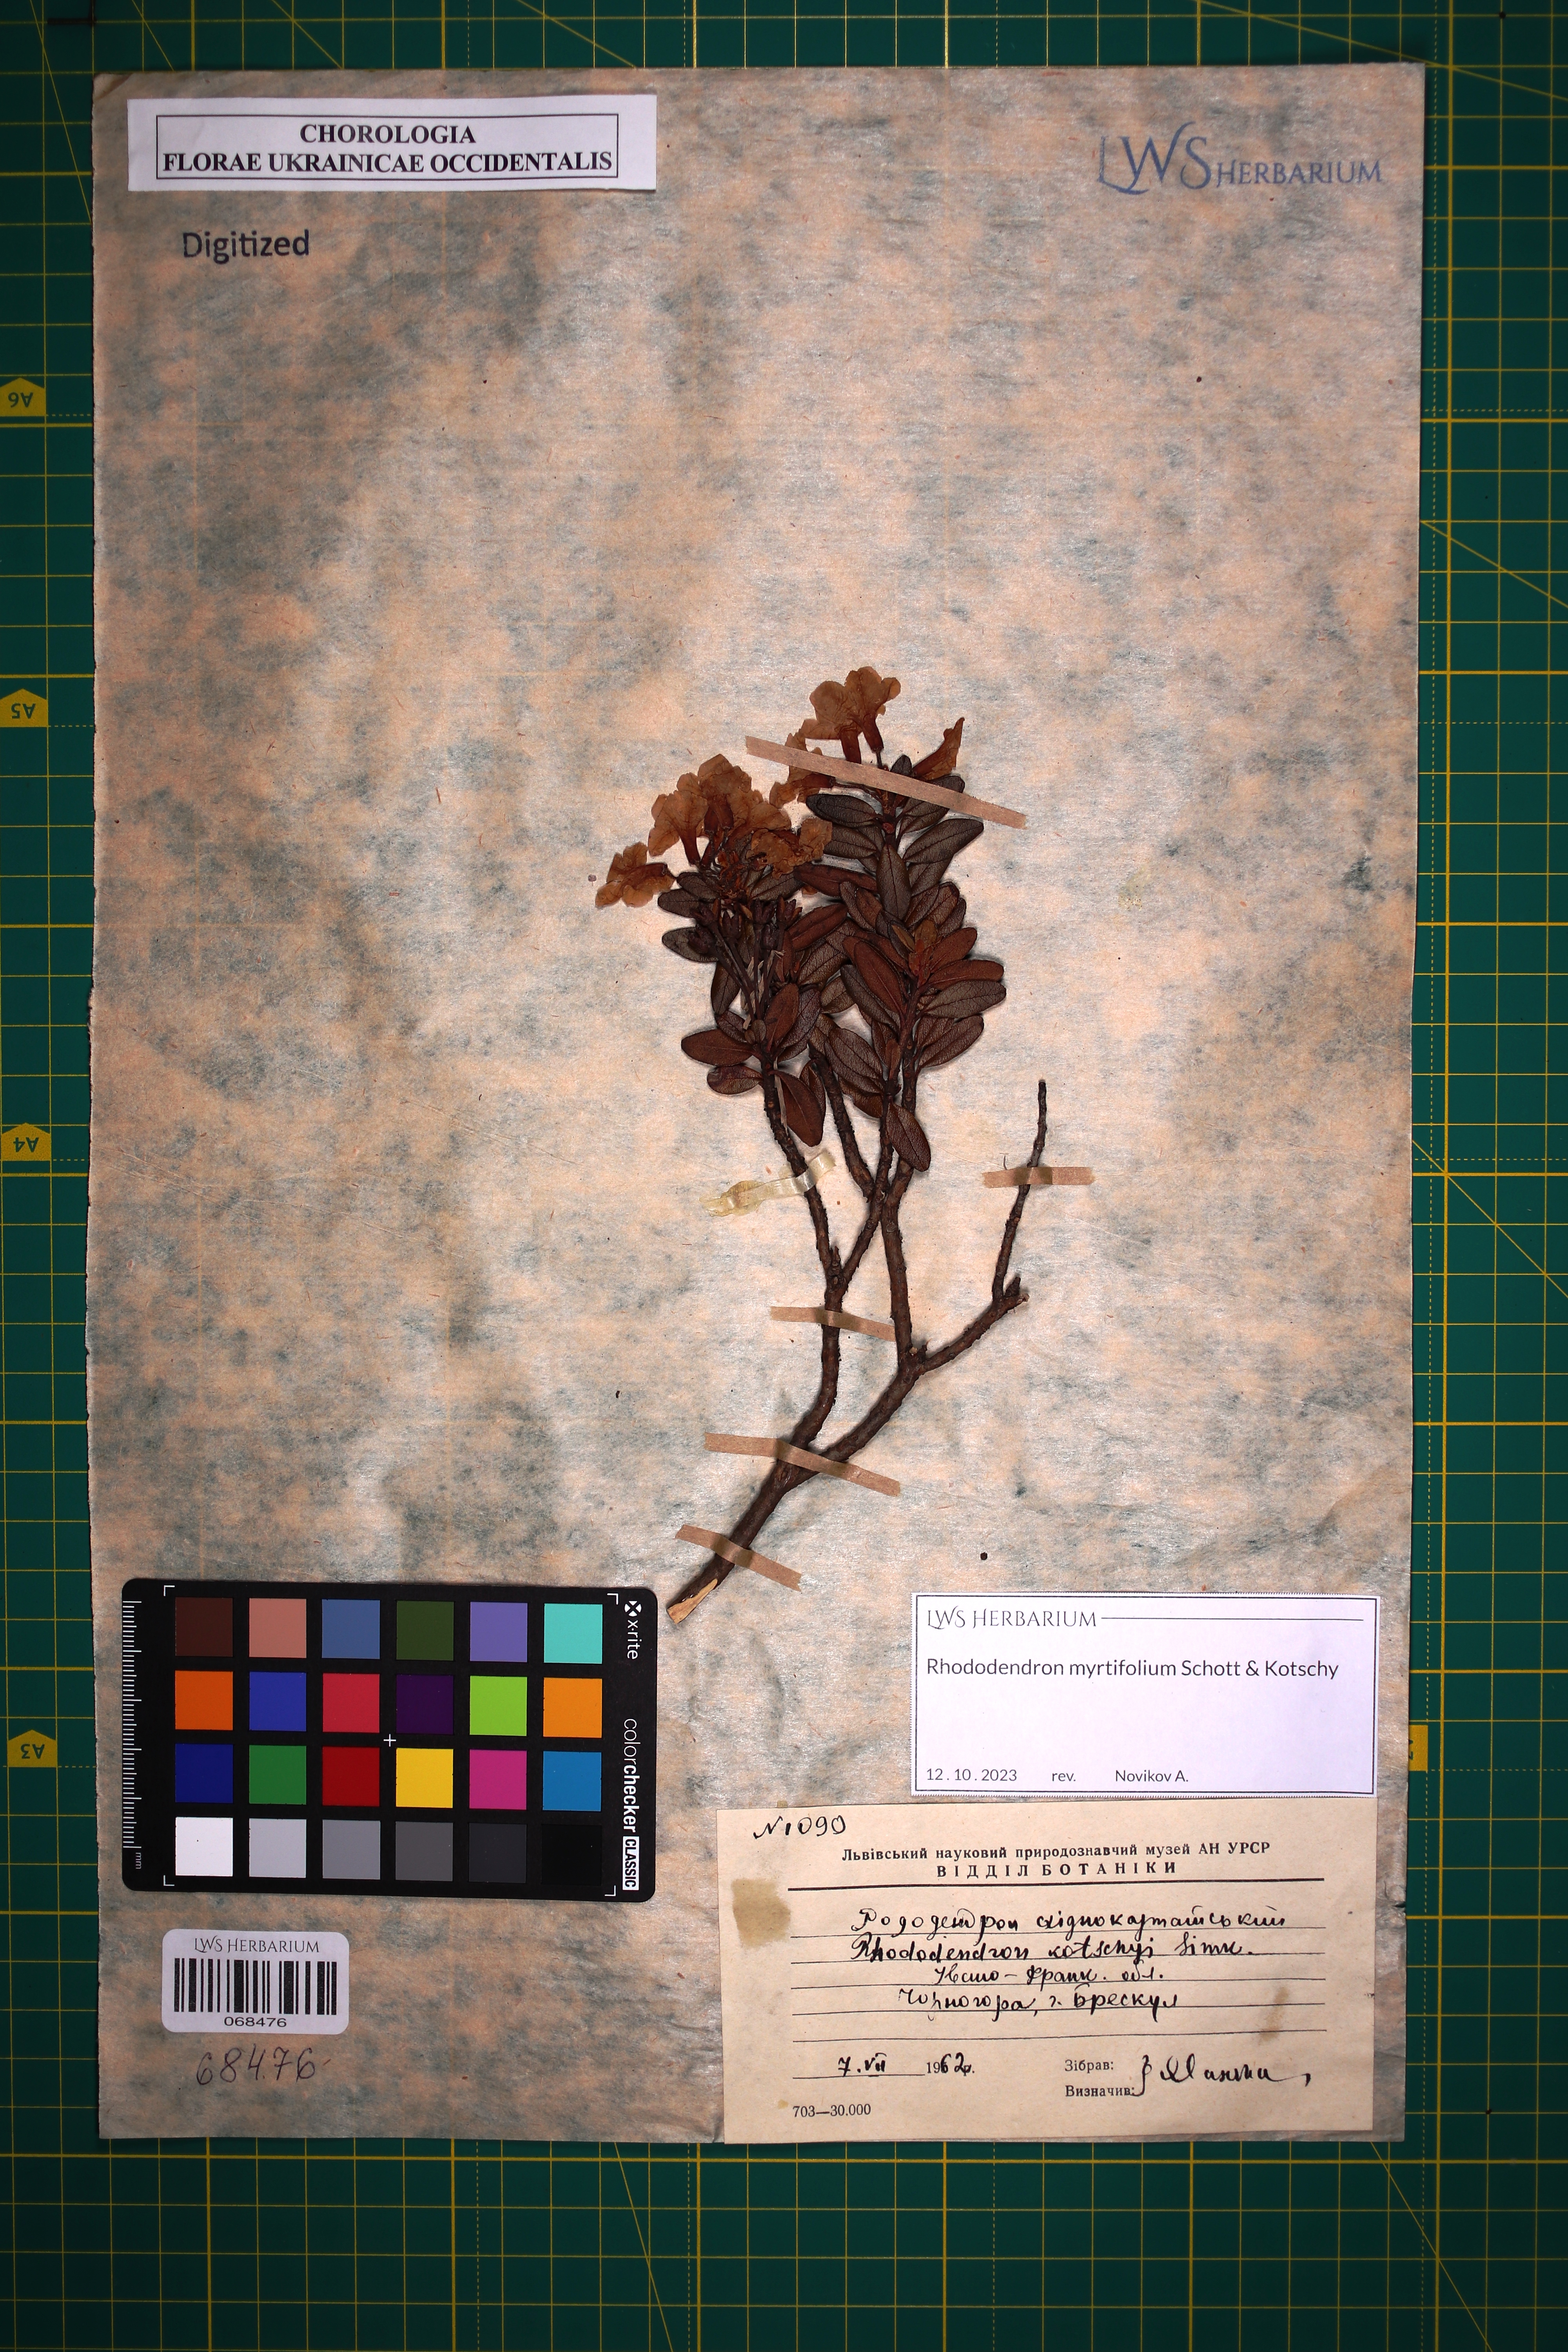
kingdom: Plantae
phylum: Tracheophyta
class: Magnoliopsida
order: Ericales
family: Ericaceae
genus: Rhododendron
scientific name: Rhododendron kotschyi
